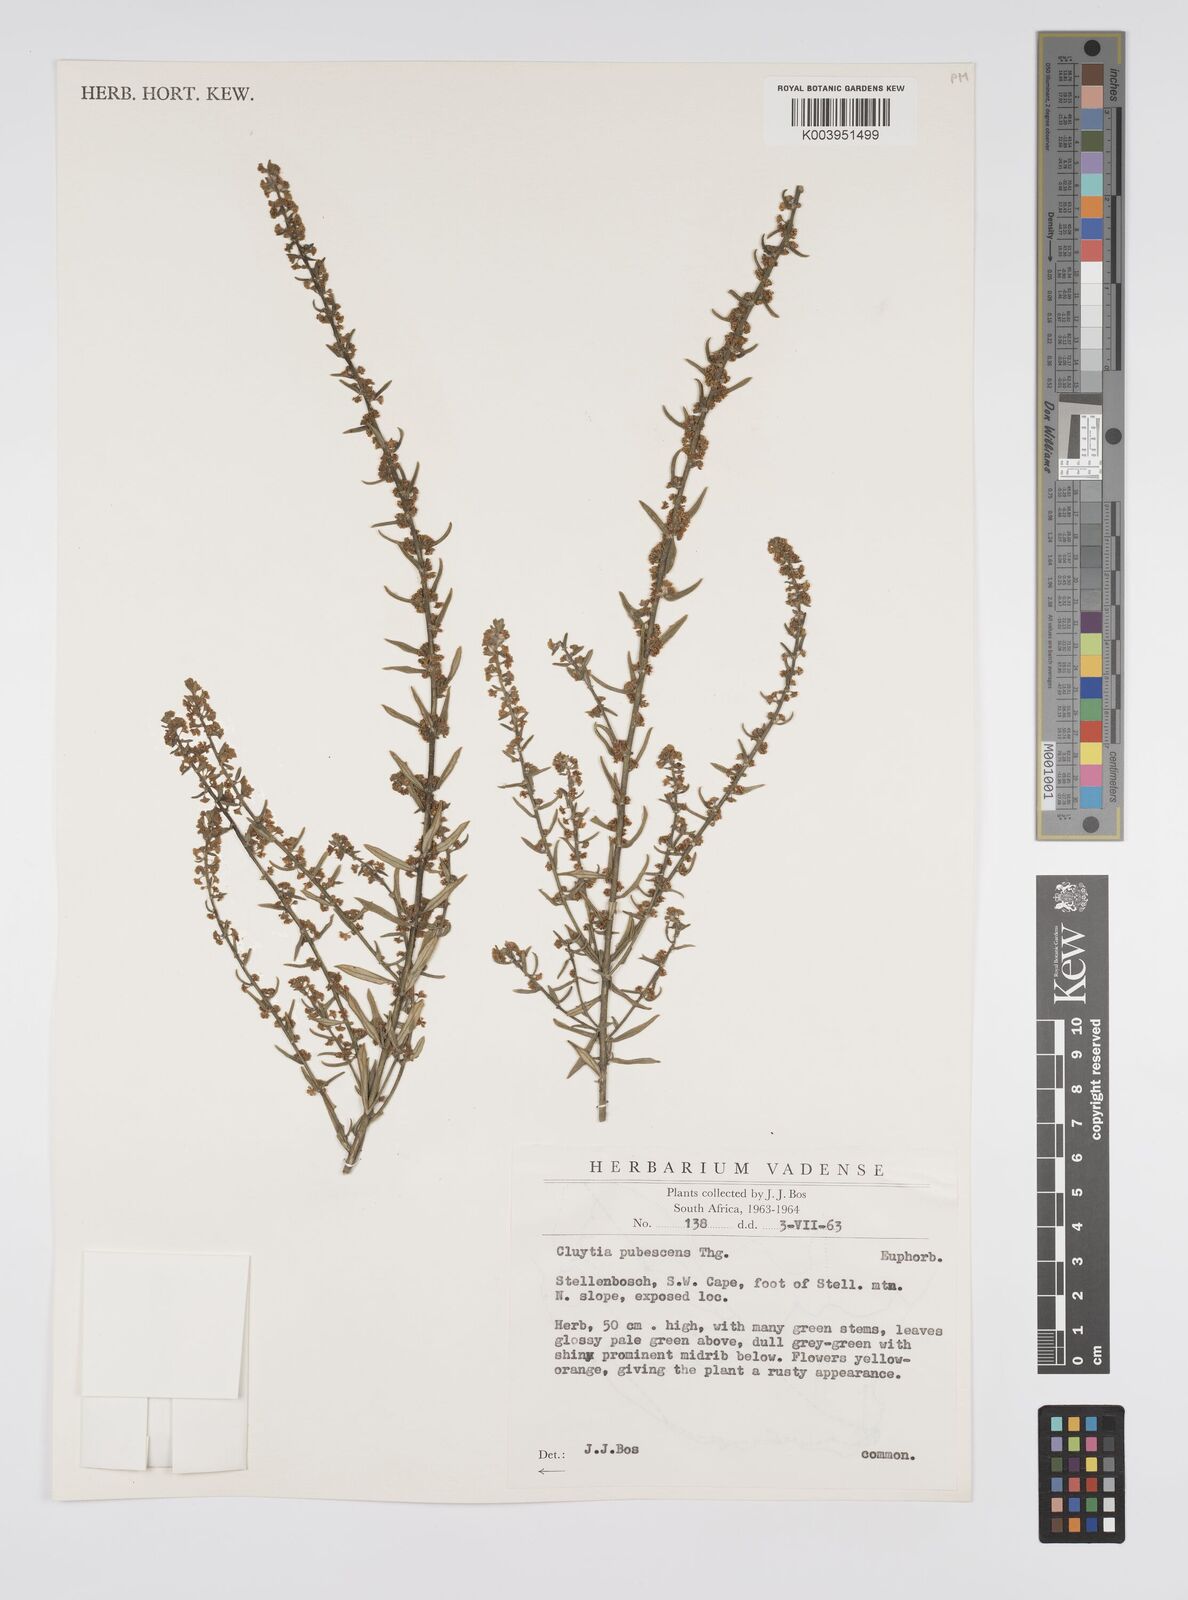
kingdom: Plantae
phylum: Tracheophyta
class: Magnoliopsida
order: Malpighiales
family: Peraceae
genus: Clutia
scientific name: Clutia
